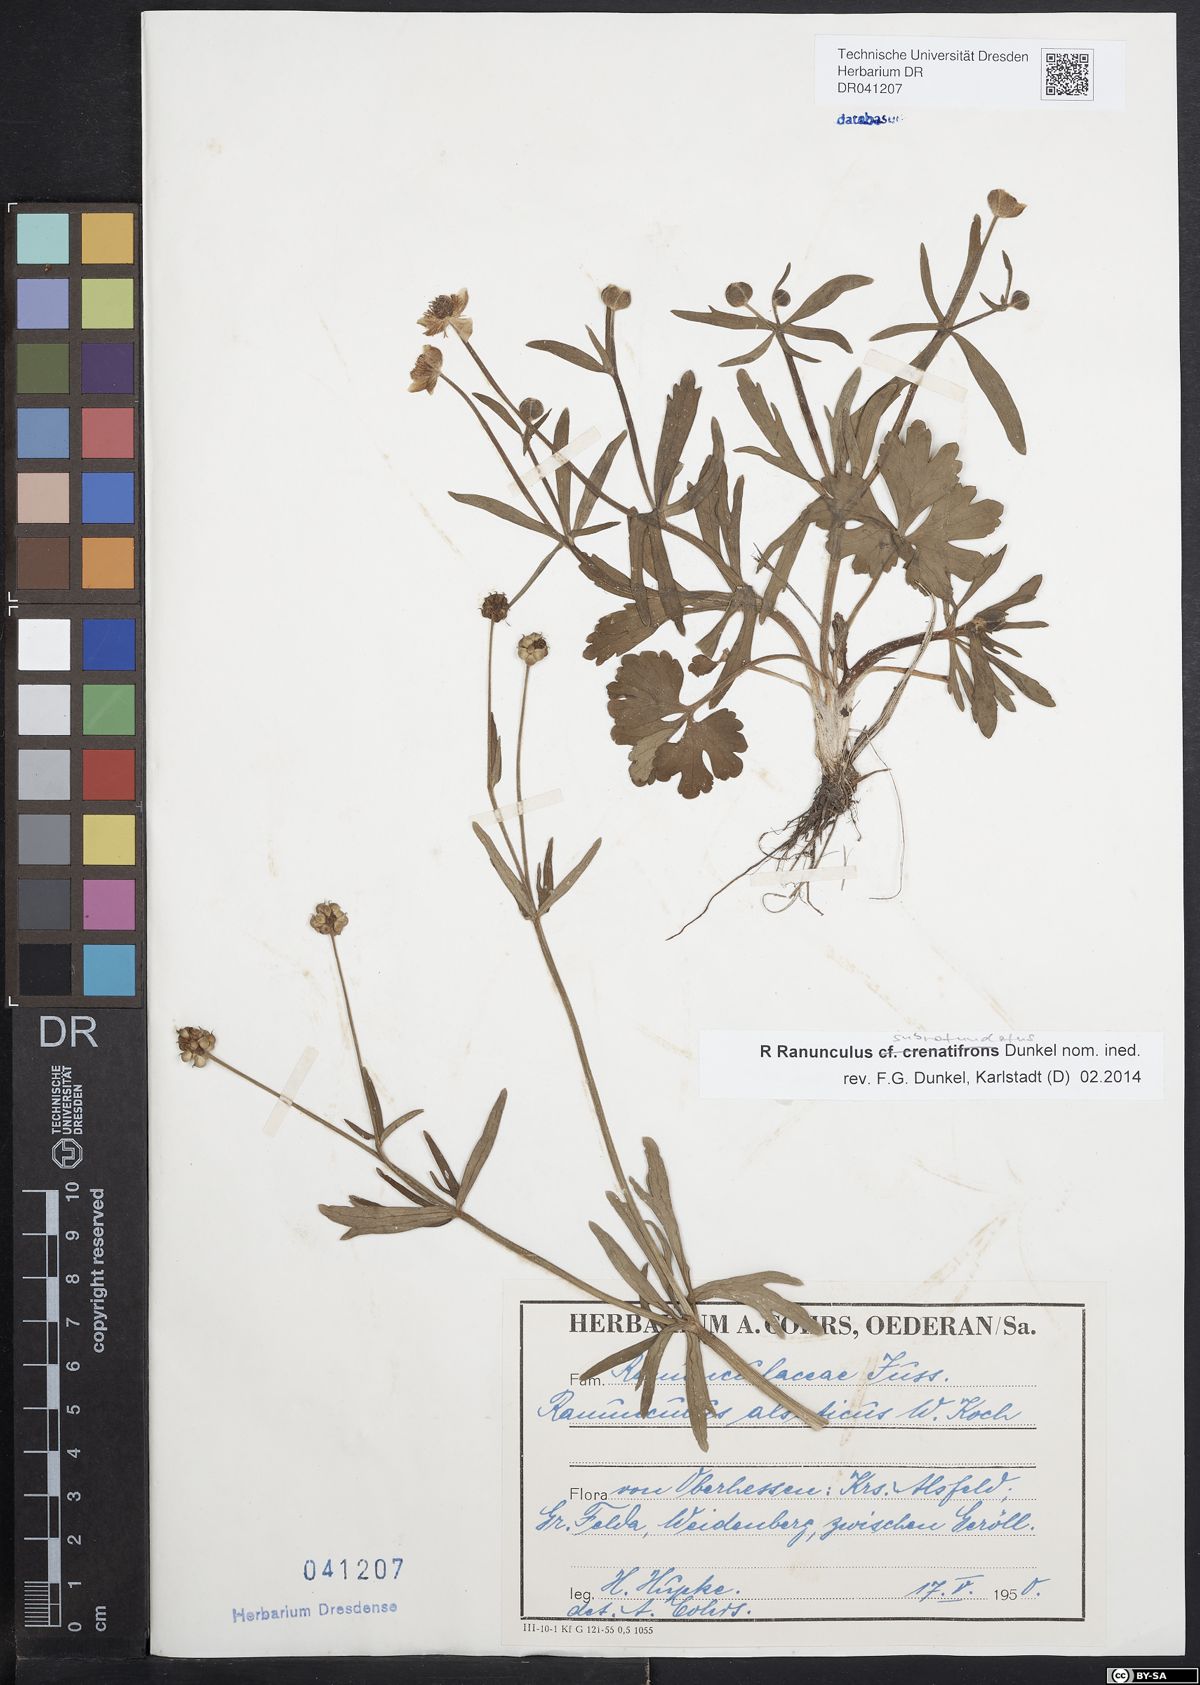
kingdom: Plantae
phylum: Tracheophyta
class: Magnoliopsida
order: Ranunculales
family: Ranunculaceae
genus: Ranunculus
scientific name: Ranunculus
